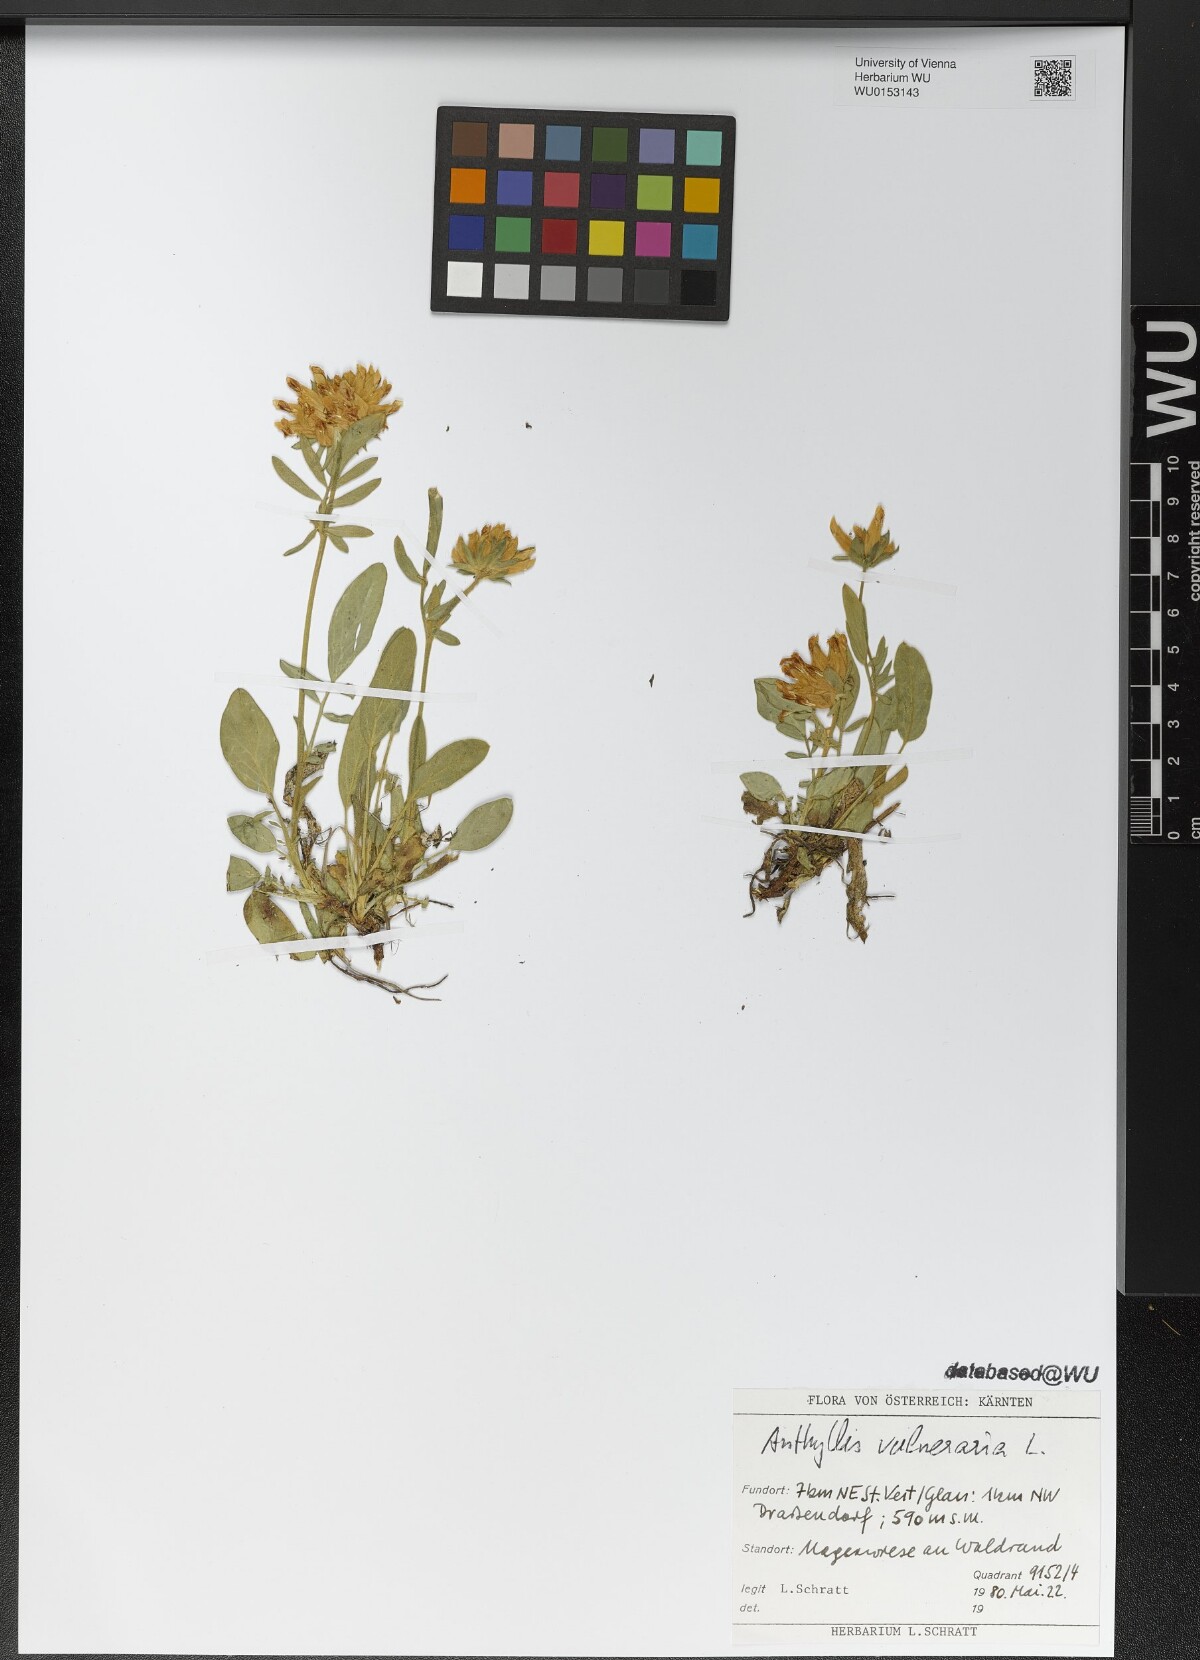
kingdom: Plantae
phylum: Tracheophyta
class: Magnoliopsida
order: Fabales
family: Fabaceae
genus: Anthyllis
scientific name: Anthyllis vulneraria
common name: Kidney vetch
